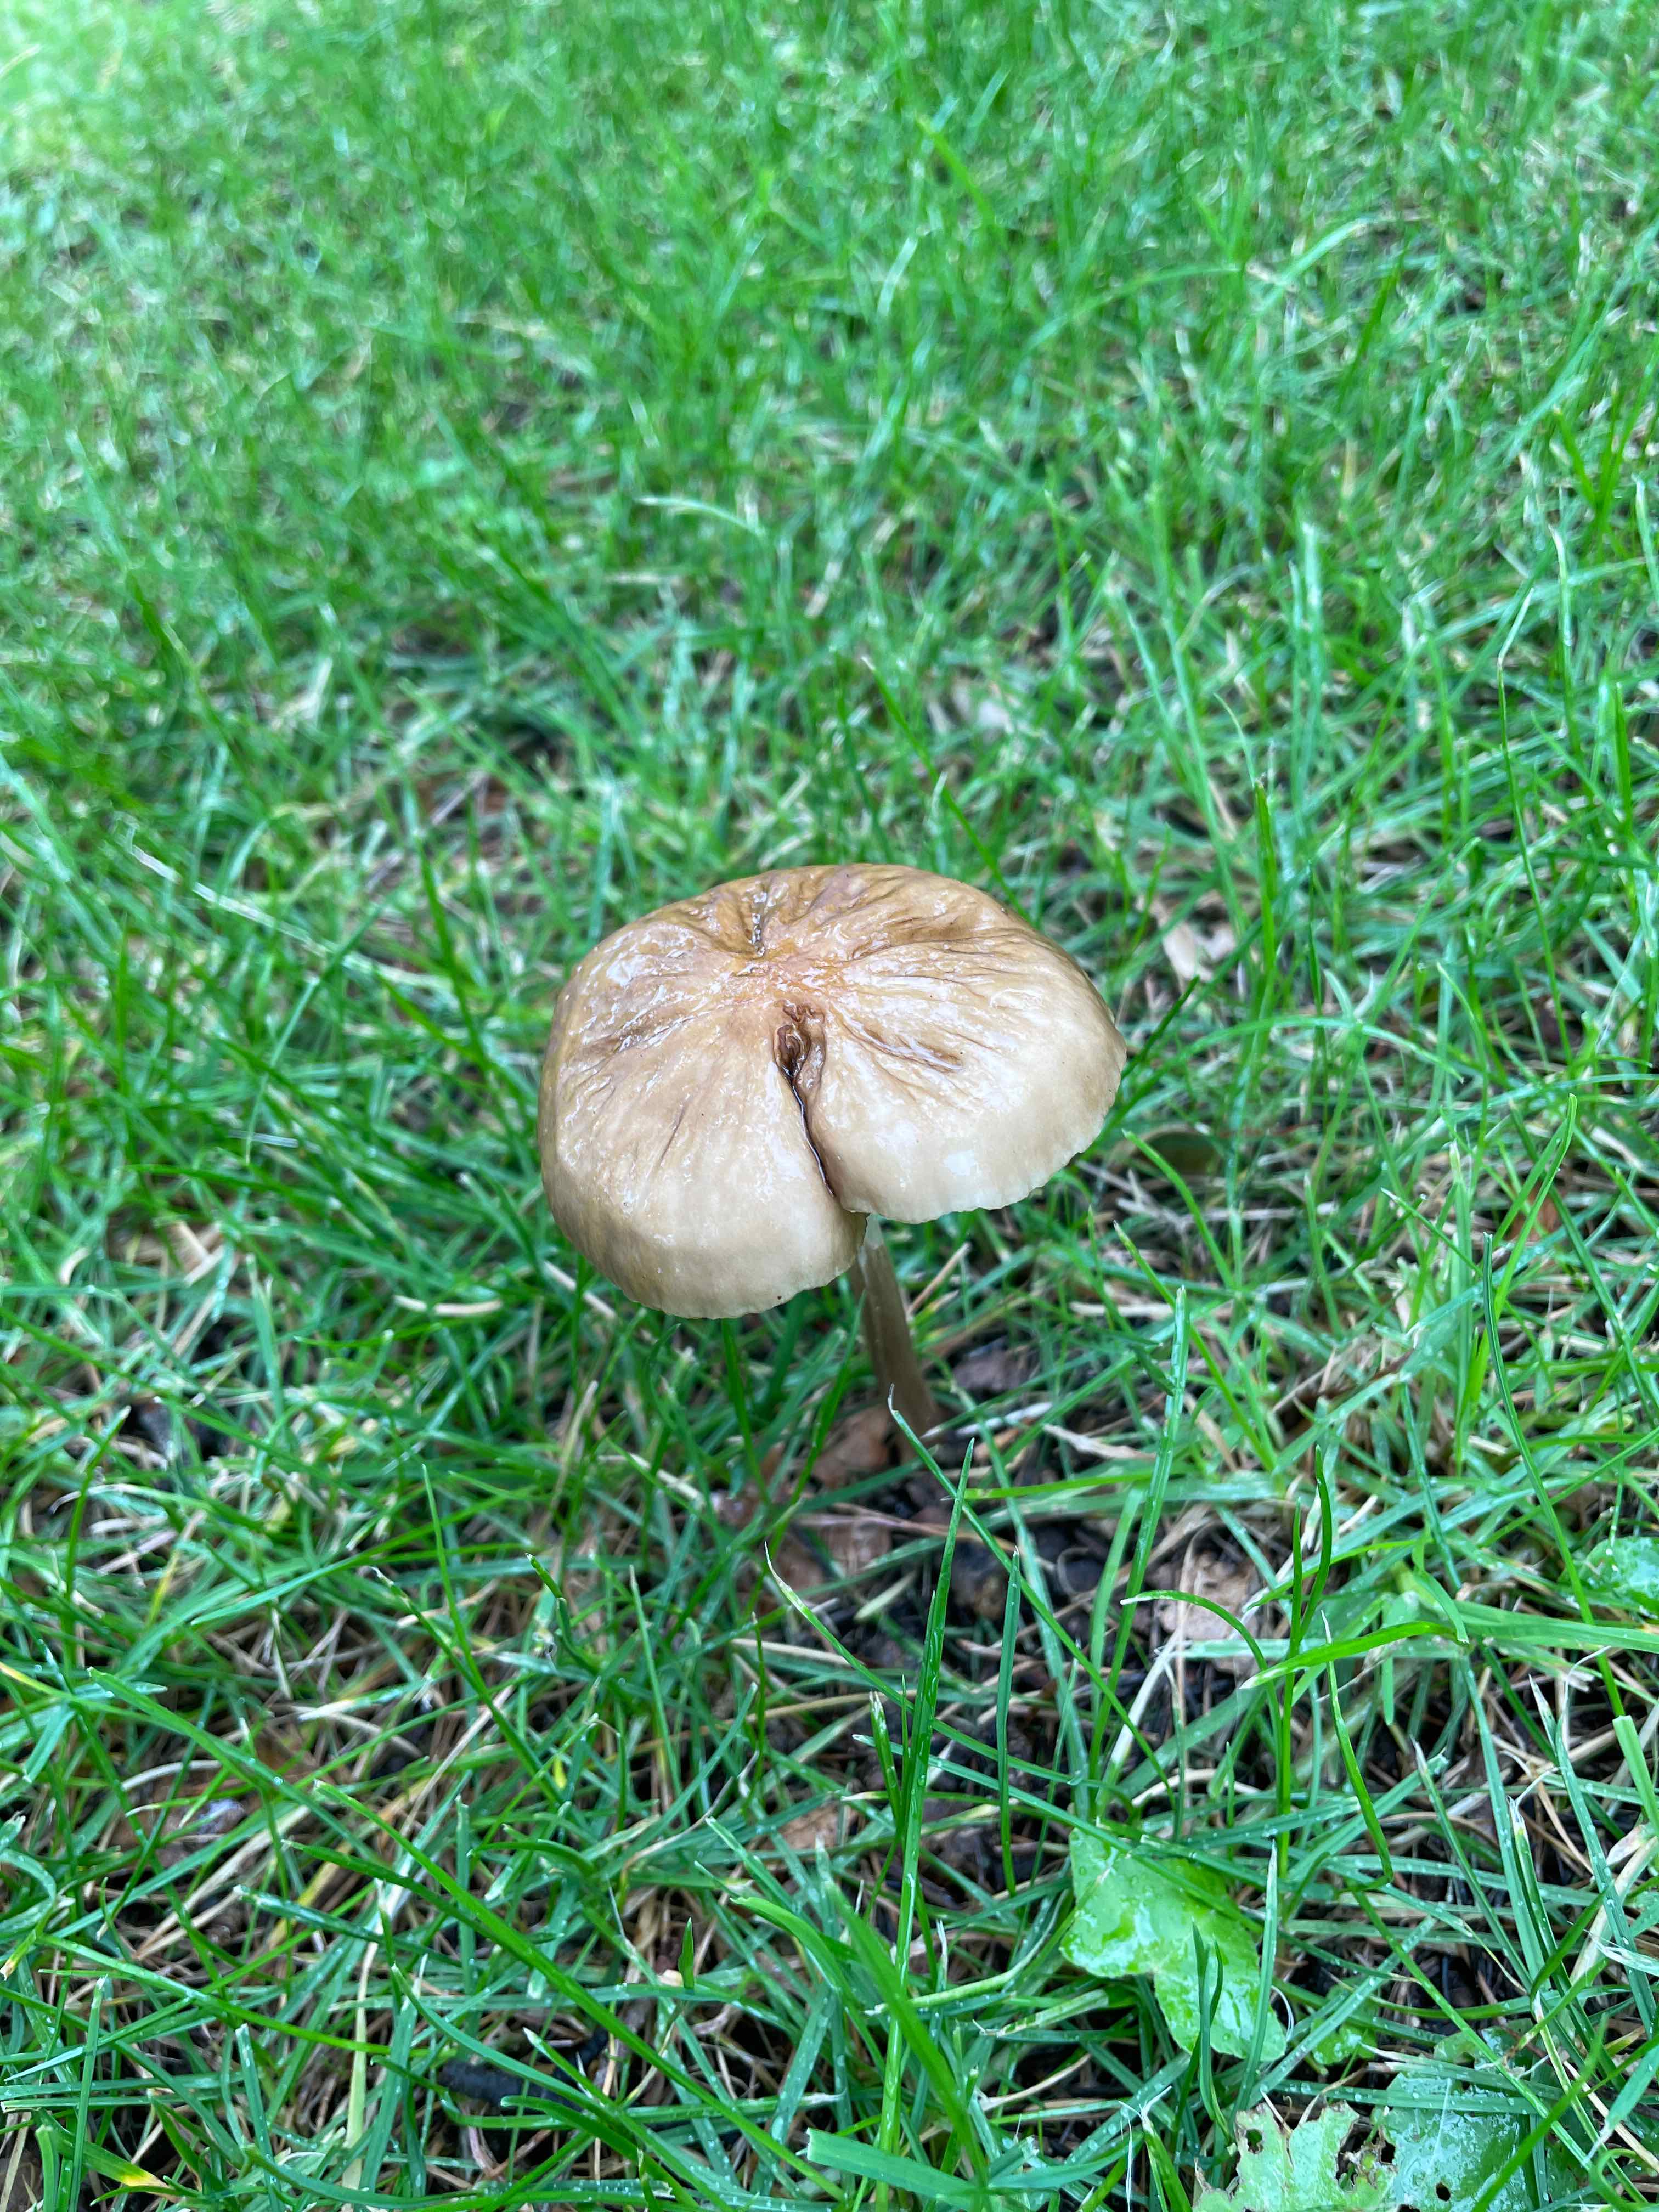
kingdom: Fungi
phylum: Basidiomycota
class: Agaricomycetes
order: Agaricales
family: Physalacriaceae
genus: Hymenopellis
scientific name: Hymenopellis radicata
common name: almindelig pælerodshat
